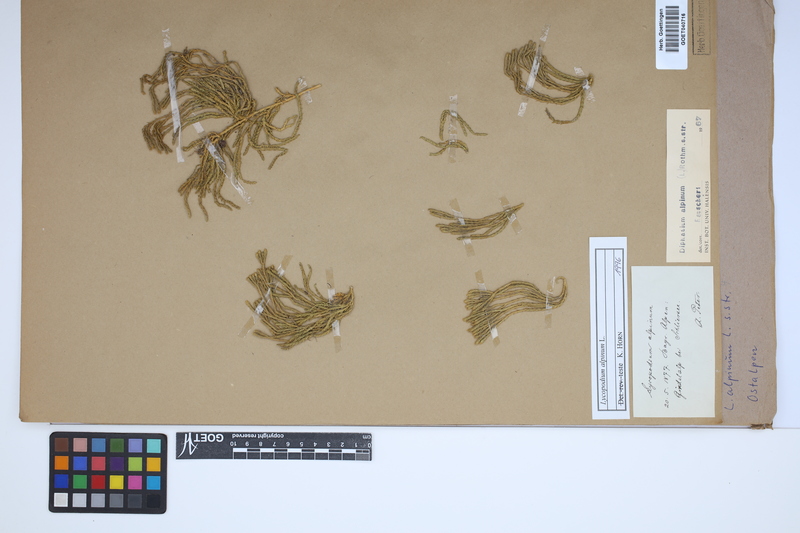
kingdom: Plantae
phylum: Tracheophyta
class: Lycopodiopsida
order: Lycopodiales
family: Lycopodiaceae
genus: Diphasiastrum
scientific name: Diphasiastrum alpinum
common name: Alpine clubmoss
